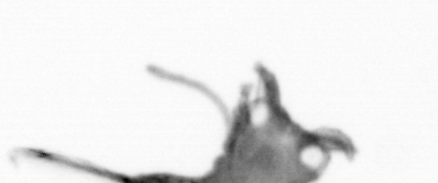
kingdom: Animalia
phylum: Annelida
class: Polychaeta
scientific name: Polychaeta
